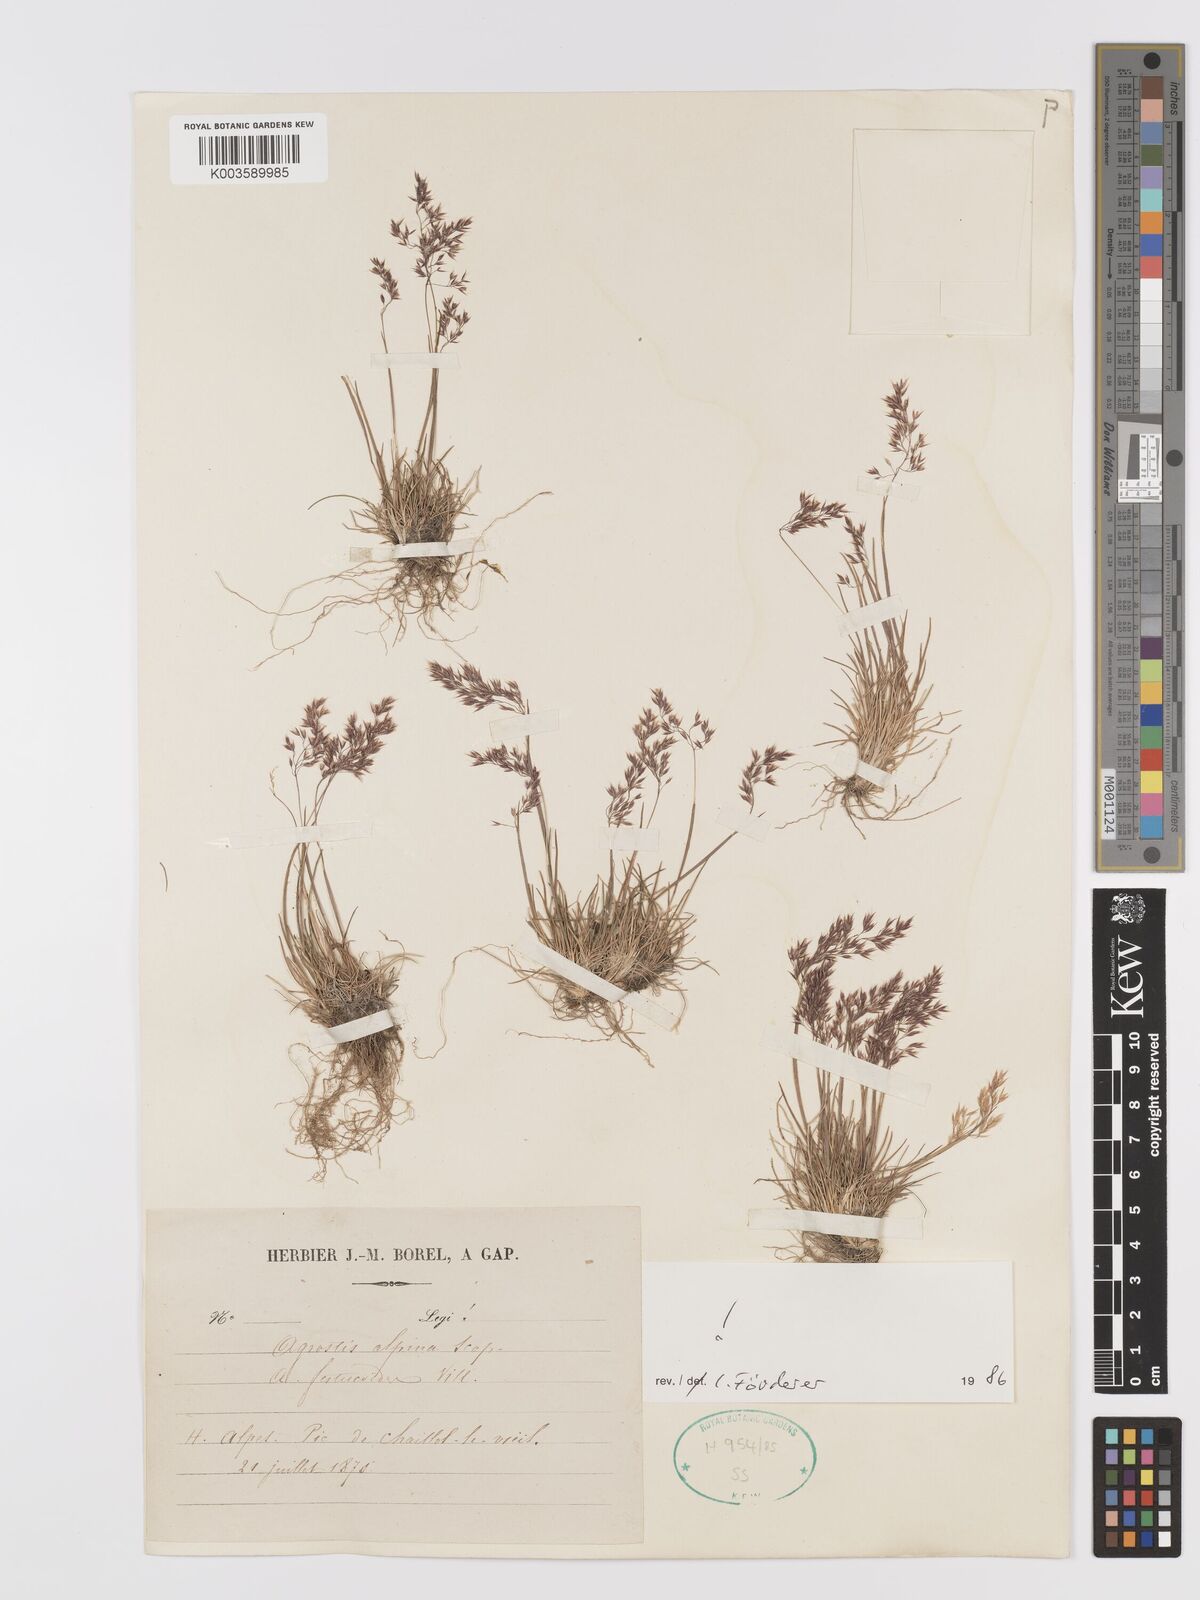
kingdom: Plantae
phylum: Tracheophyta
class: Liliopsida
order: Poales
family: Poaceae
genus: Alpagrostis
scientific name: Alpagrostis alpina
